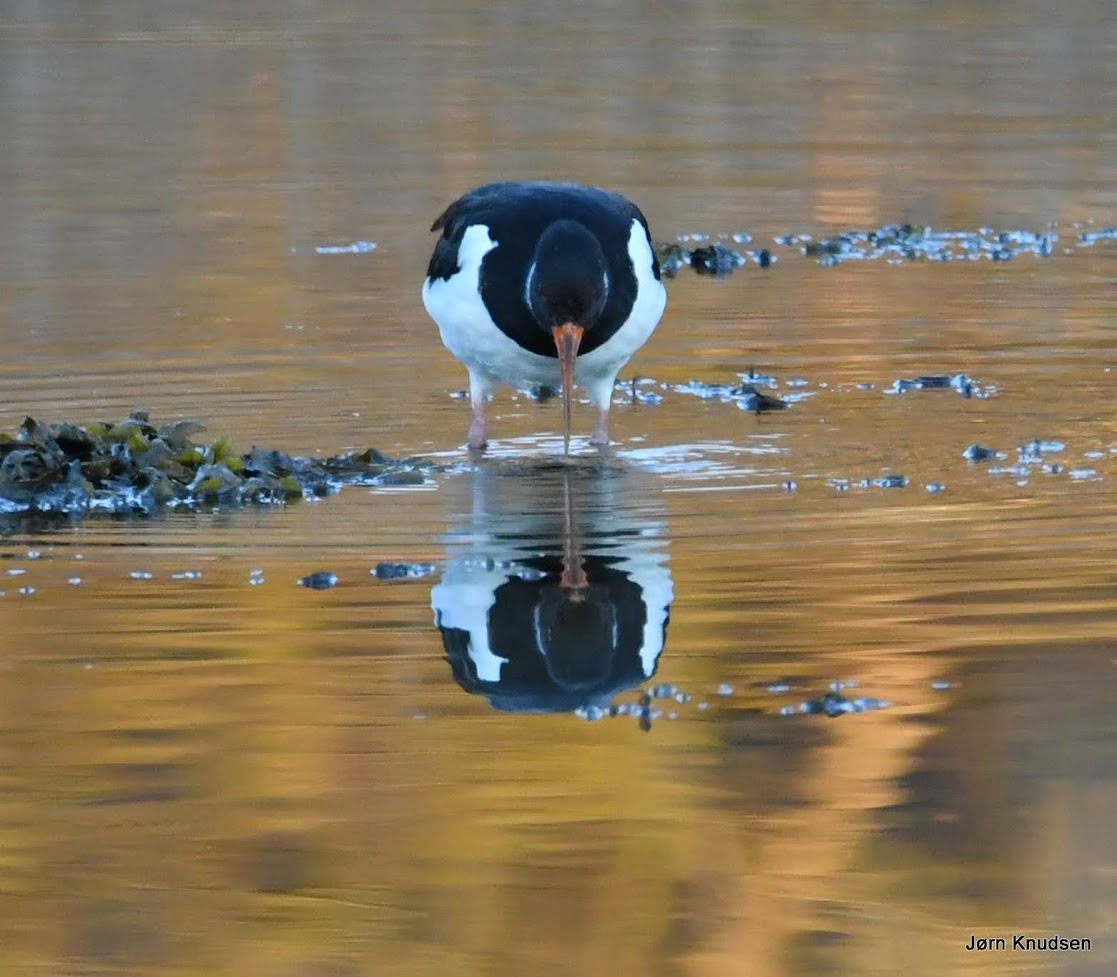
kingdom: Animalia
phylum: Chordata
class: Aves
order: Charadriiformes
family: Haematopodidae
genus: Haematopus
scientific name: Haematopus ostralegus
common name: Strandskade
